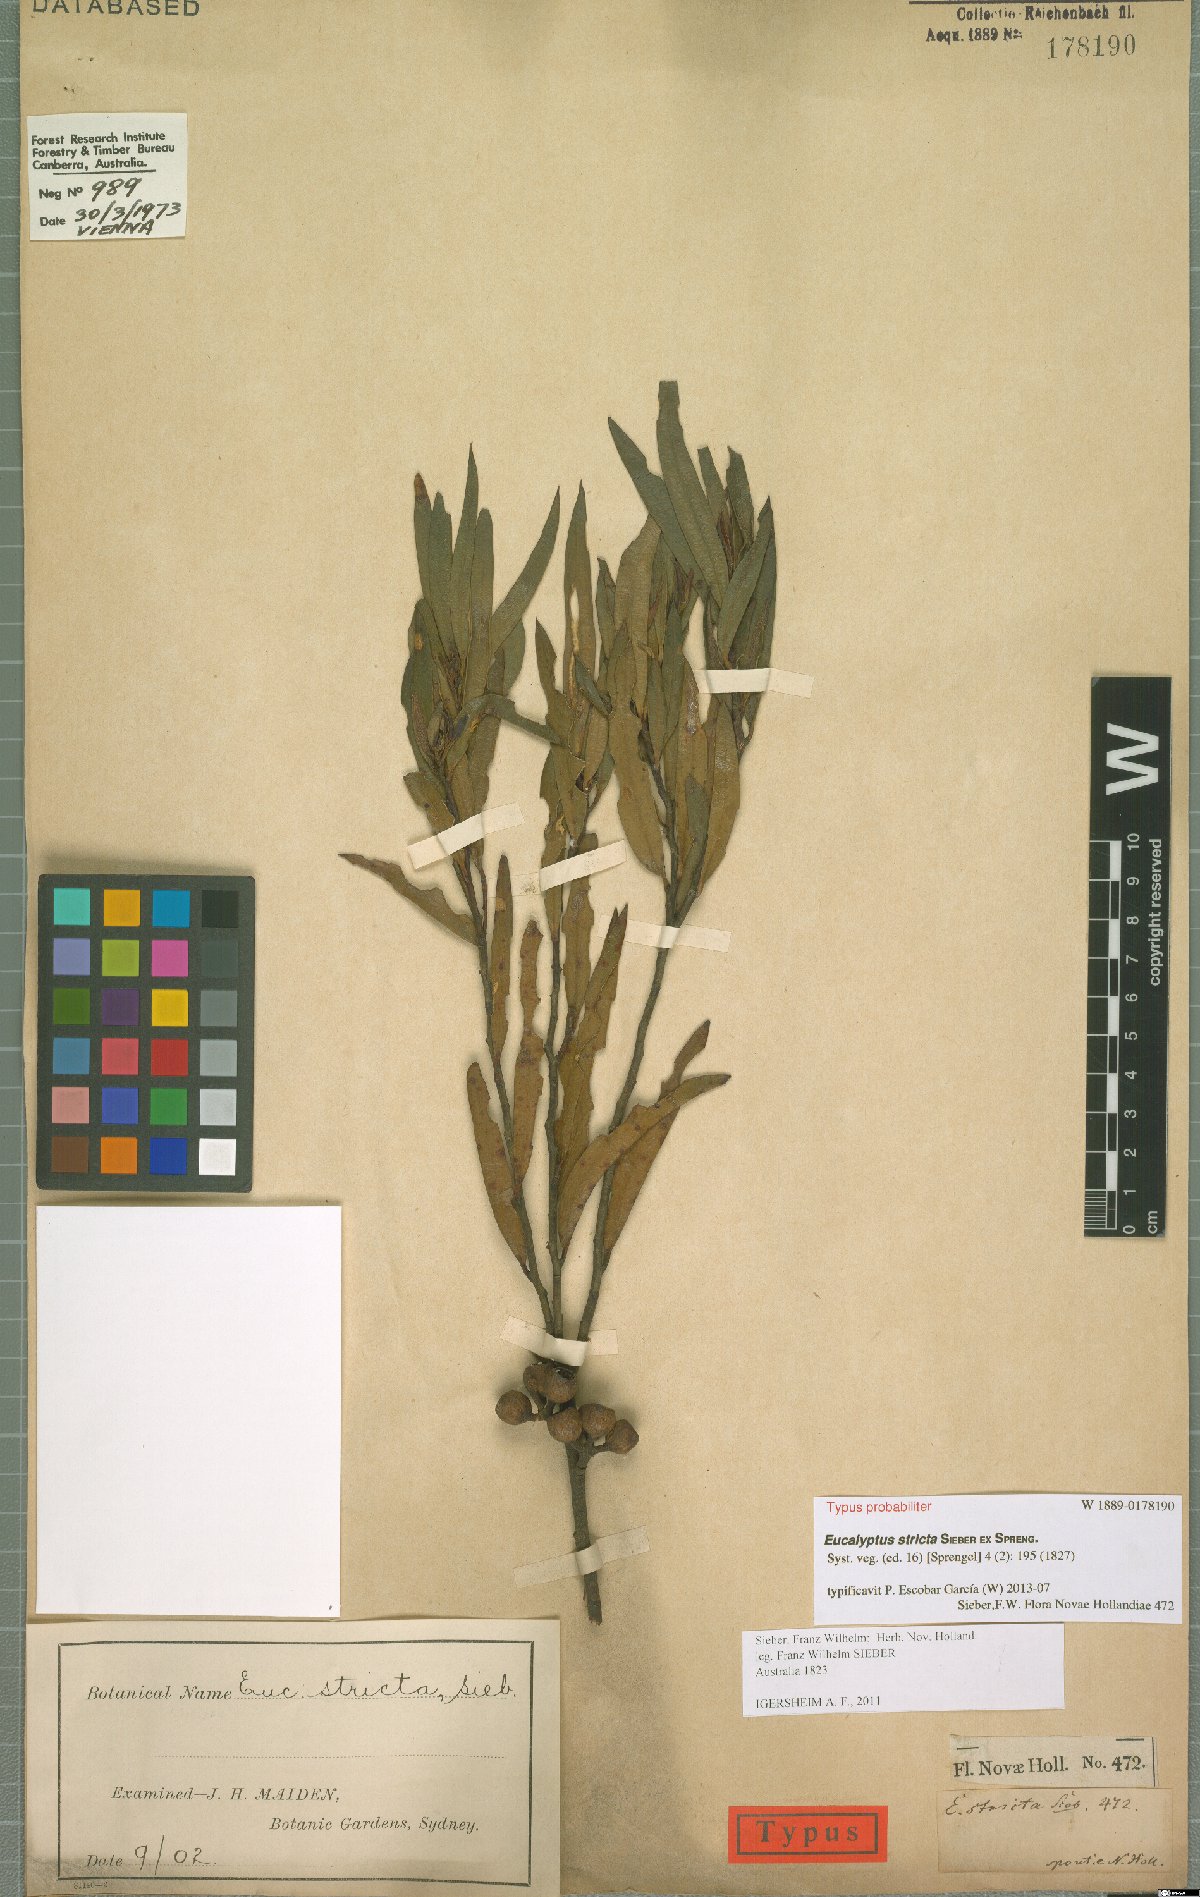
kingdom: Plantae
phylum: Tracheophyta
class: Magnoliopsida
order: Myrtales
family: Myrtaceae
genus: Eucalyptus
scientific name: Eucalyptus stricta
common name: Blue-mountain-malle-ash
